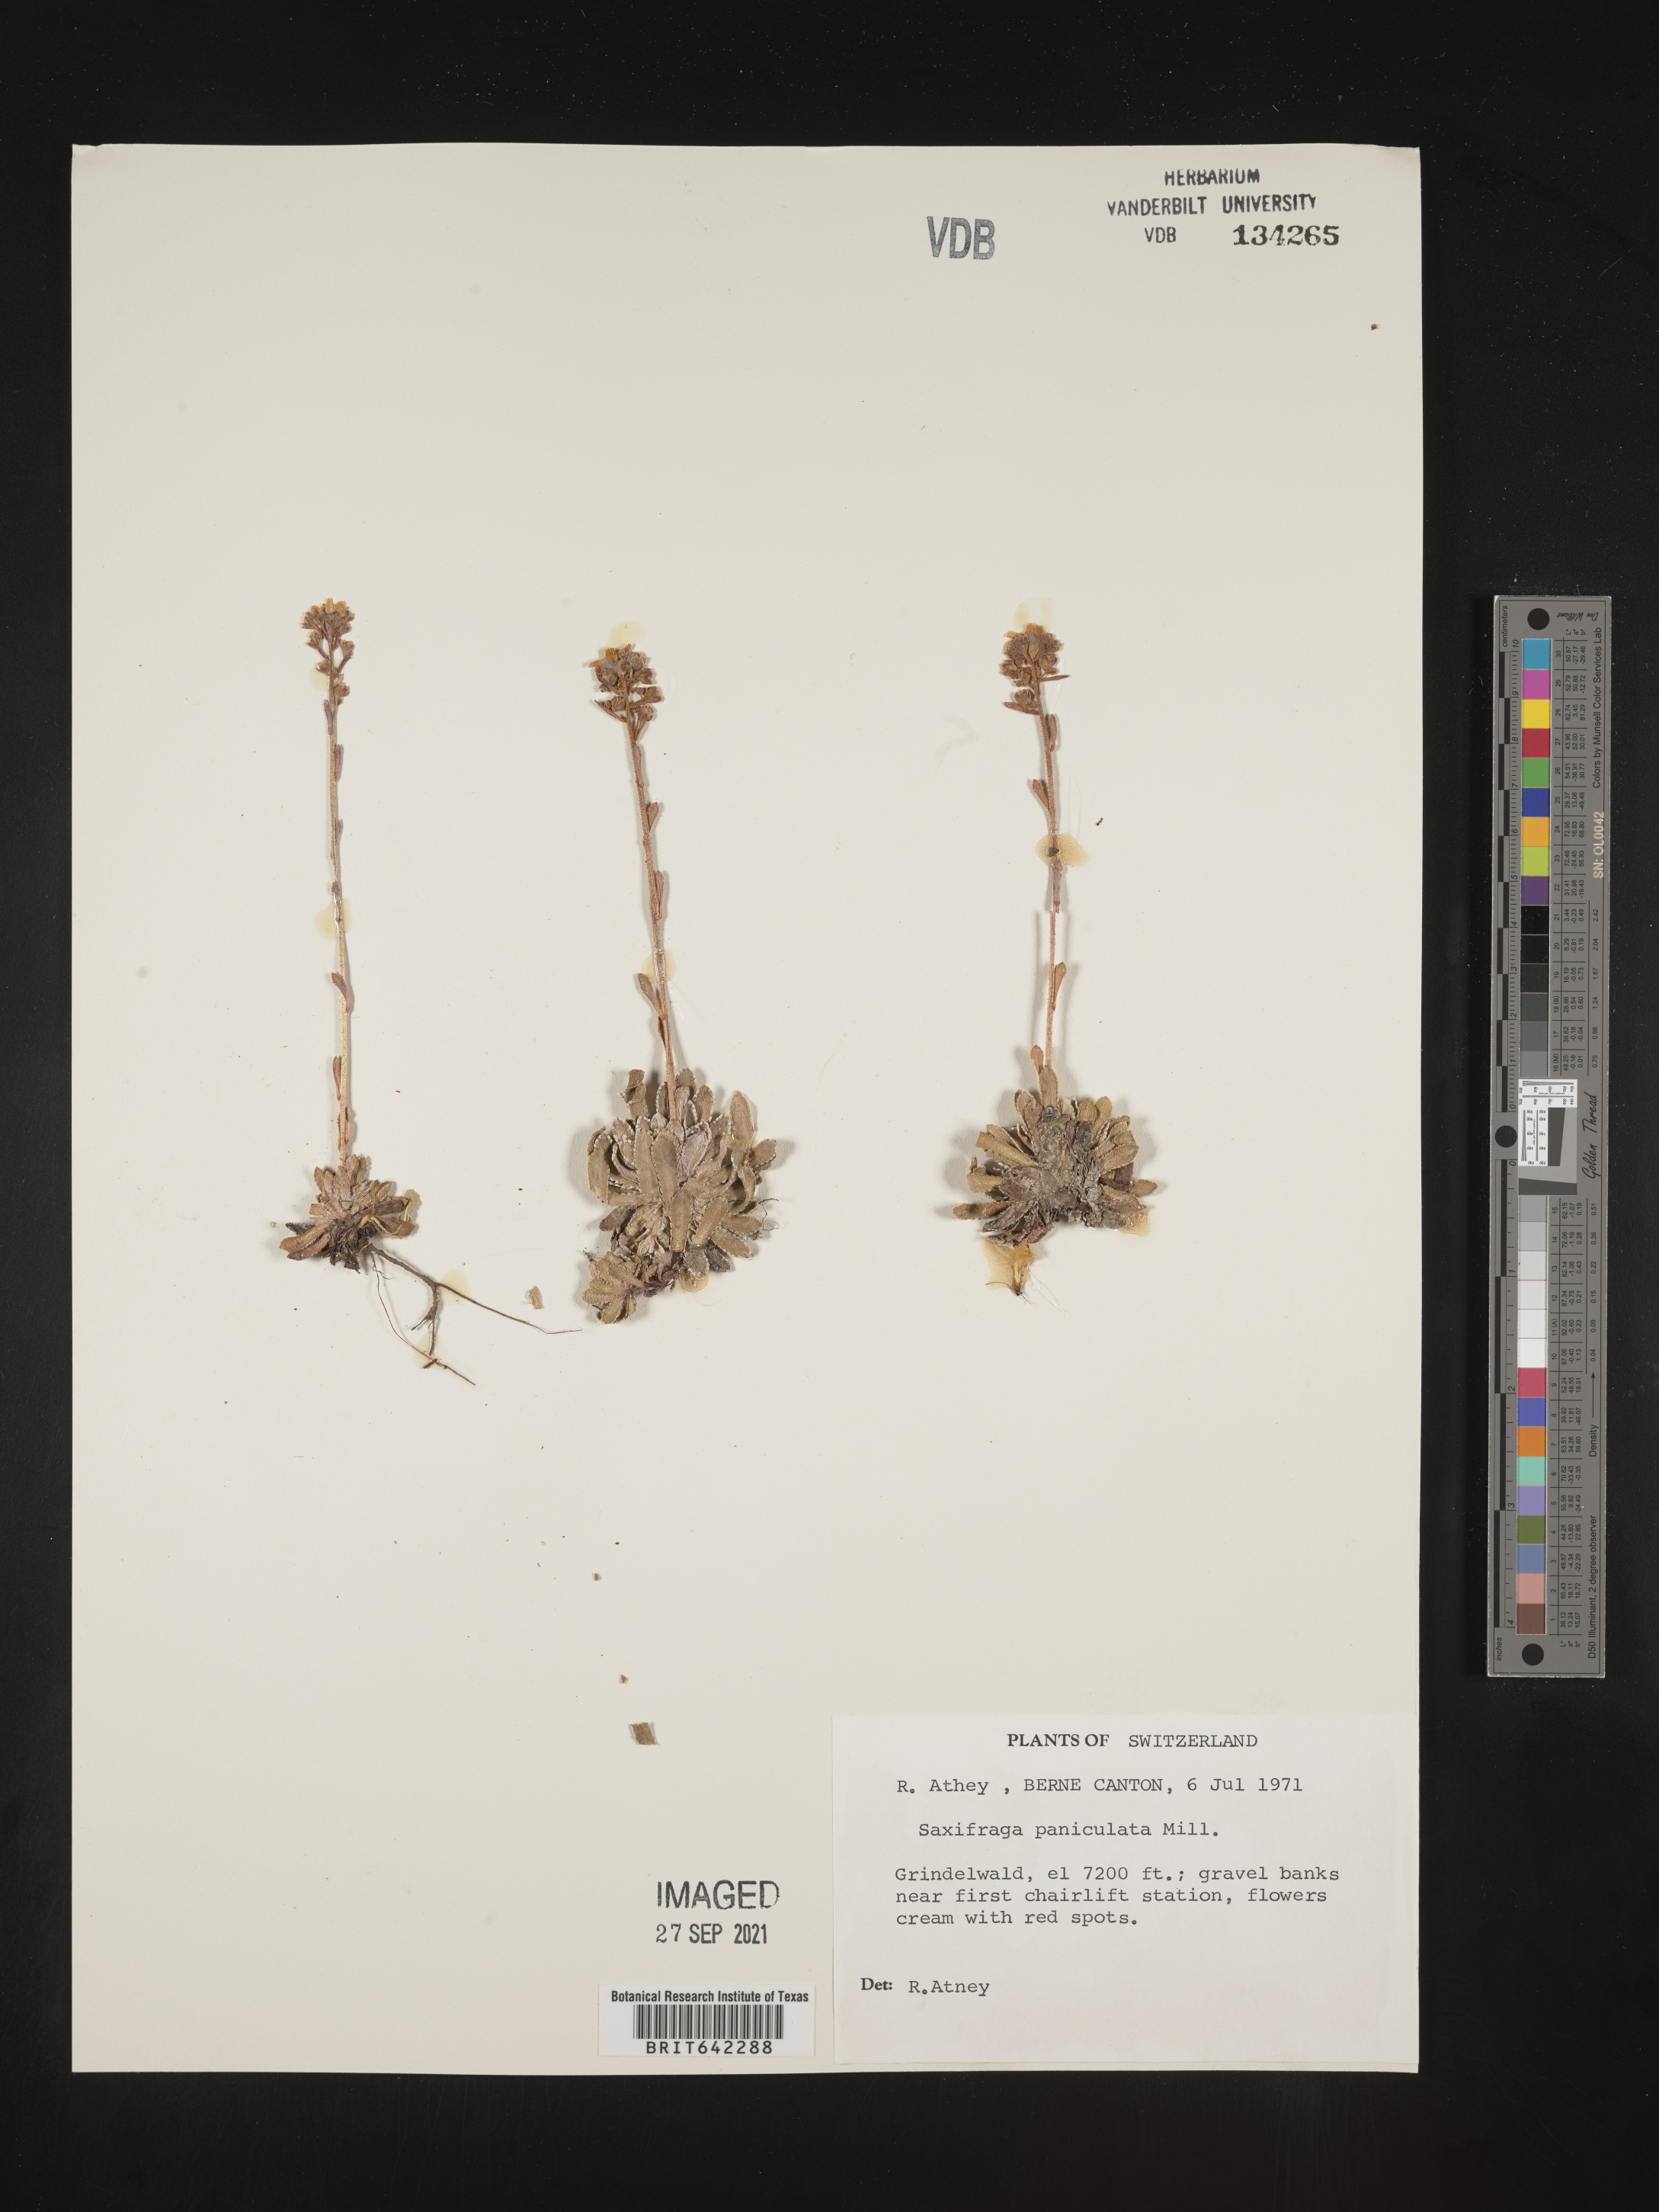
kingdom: Plantae
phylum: Tracheophyta
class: Magnoliopsida
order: Saxifragales
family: Saxifragaceae
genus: Saxifraga
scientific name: Saxifraga
